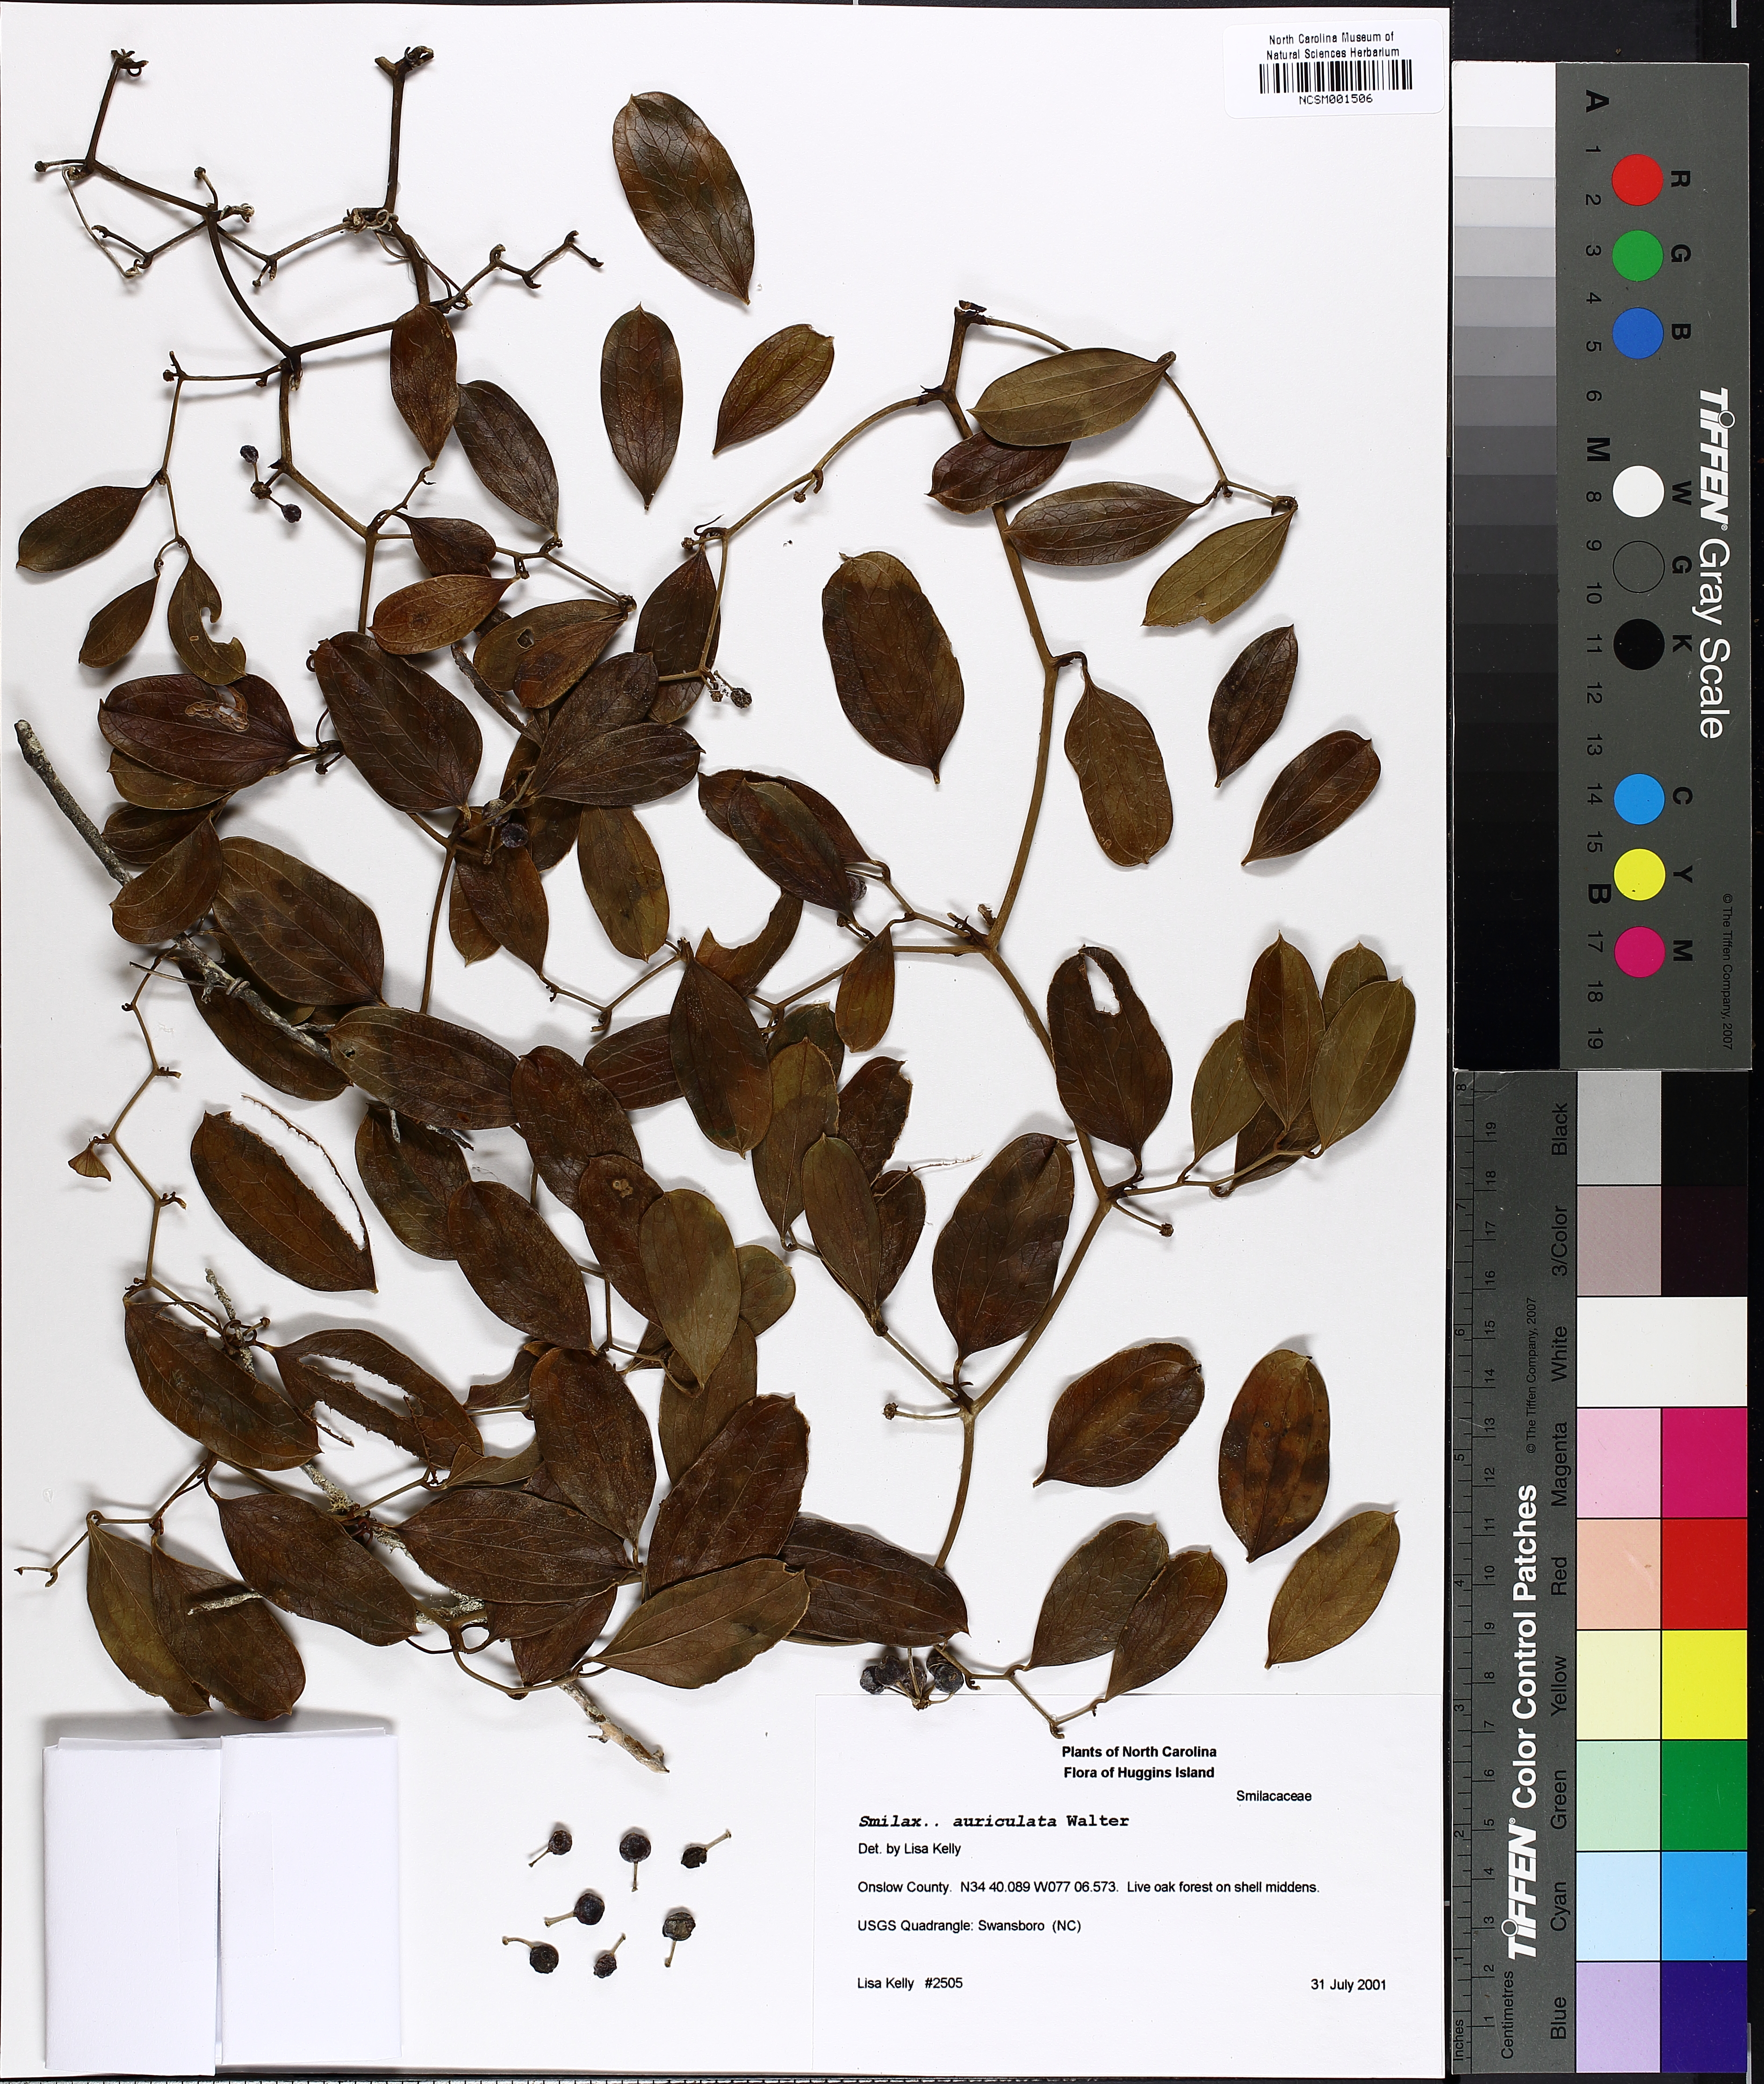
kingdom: Plantae
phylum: Tracheophyta
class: Liliopsida
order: Liliales
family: Smilacaceae
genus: Smilax
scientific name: Smilax auriculata
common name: Wild bamboo
